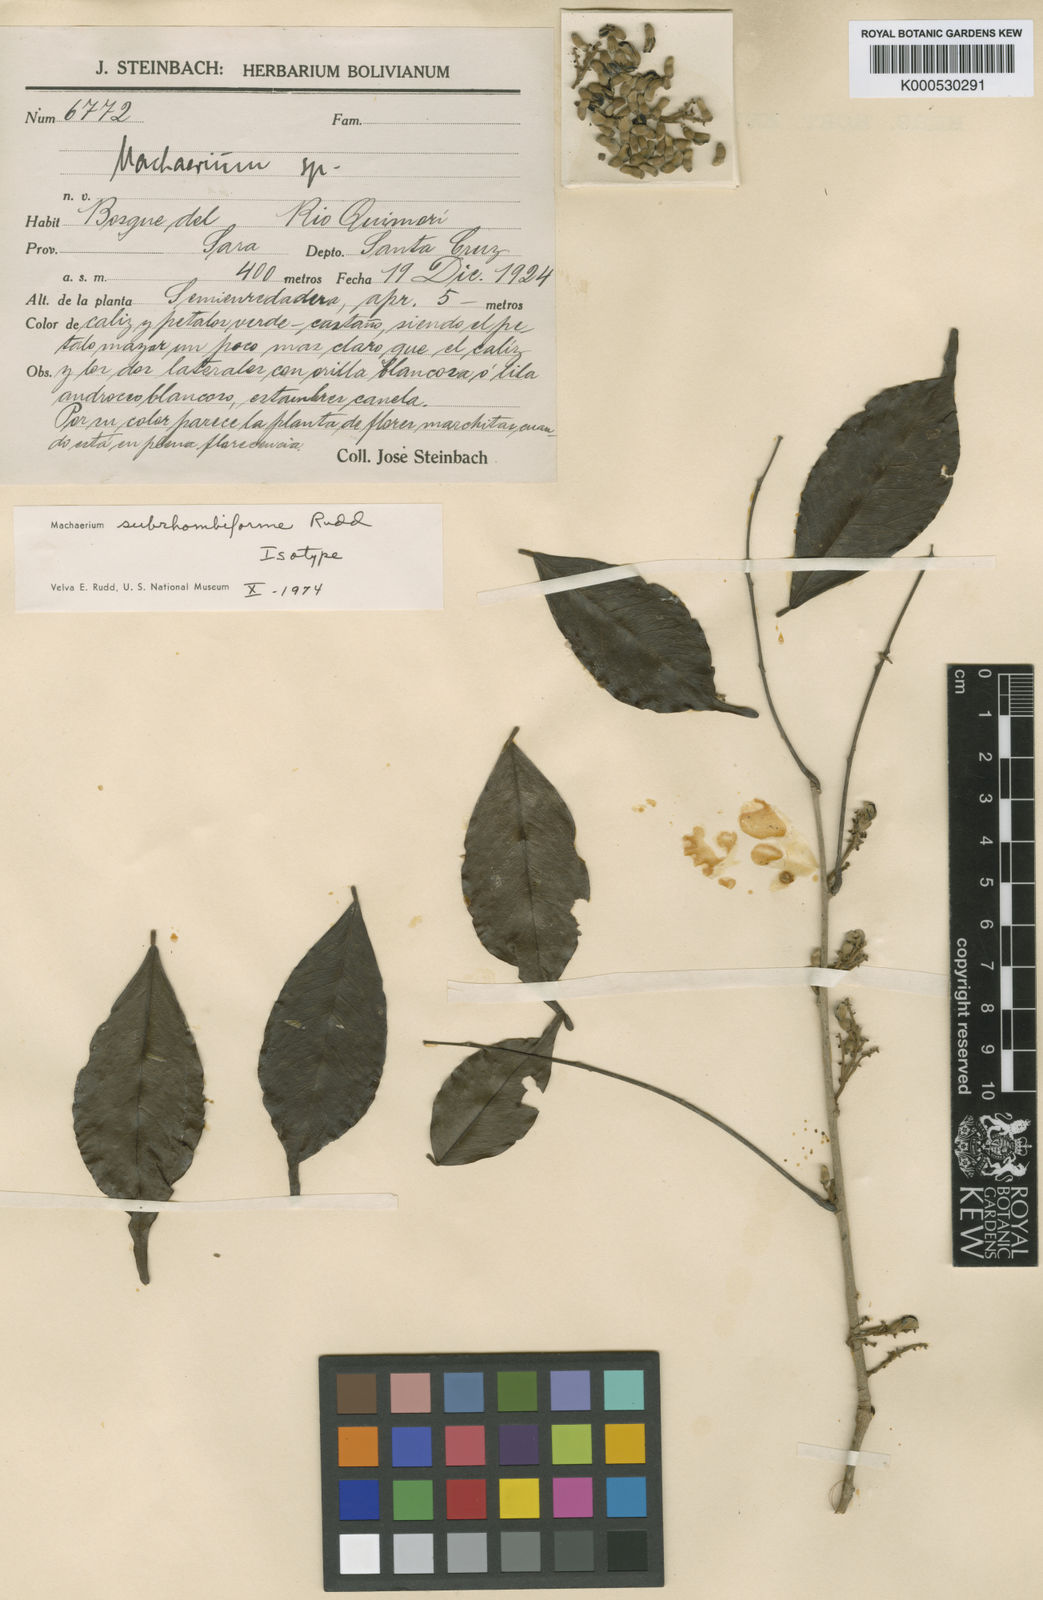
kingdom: Plantae
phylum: Tracheophyta
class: Magnoliopsida
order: Fabales
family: Fabaceae
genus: Machaerium
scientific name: Machaerium subrhombiforme
